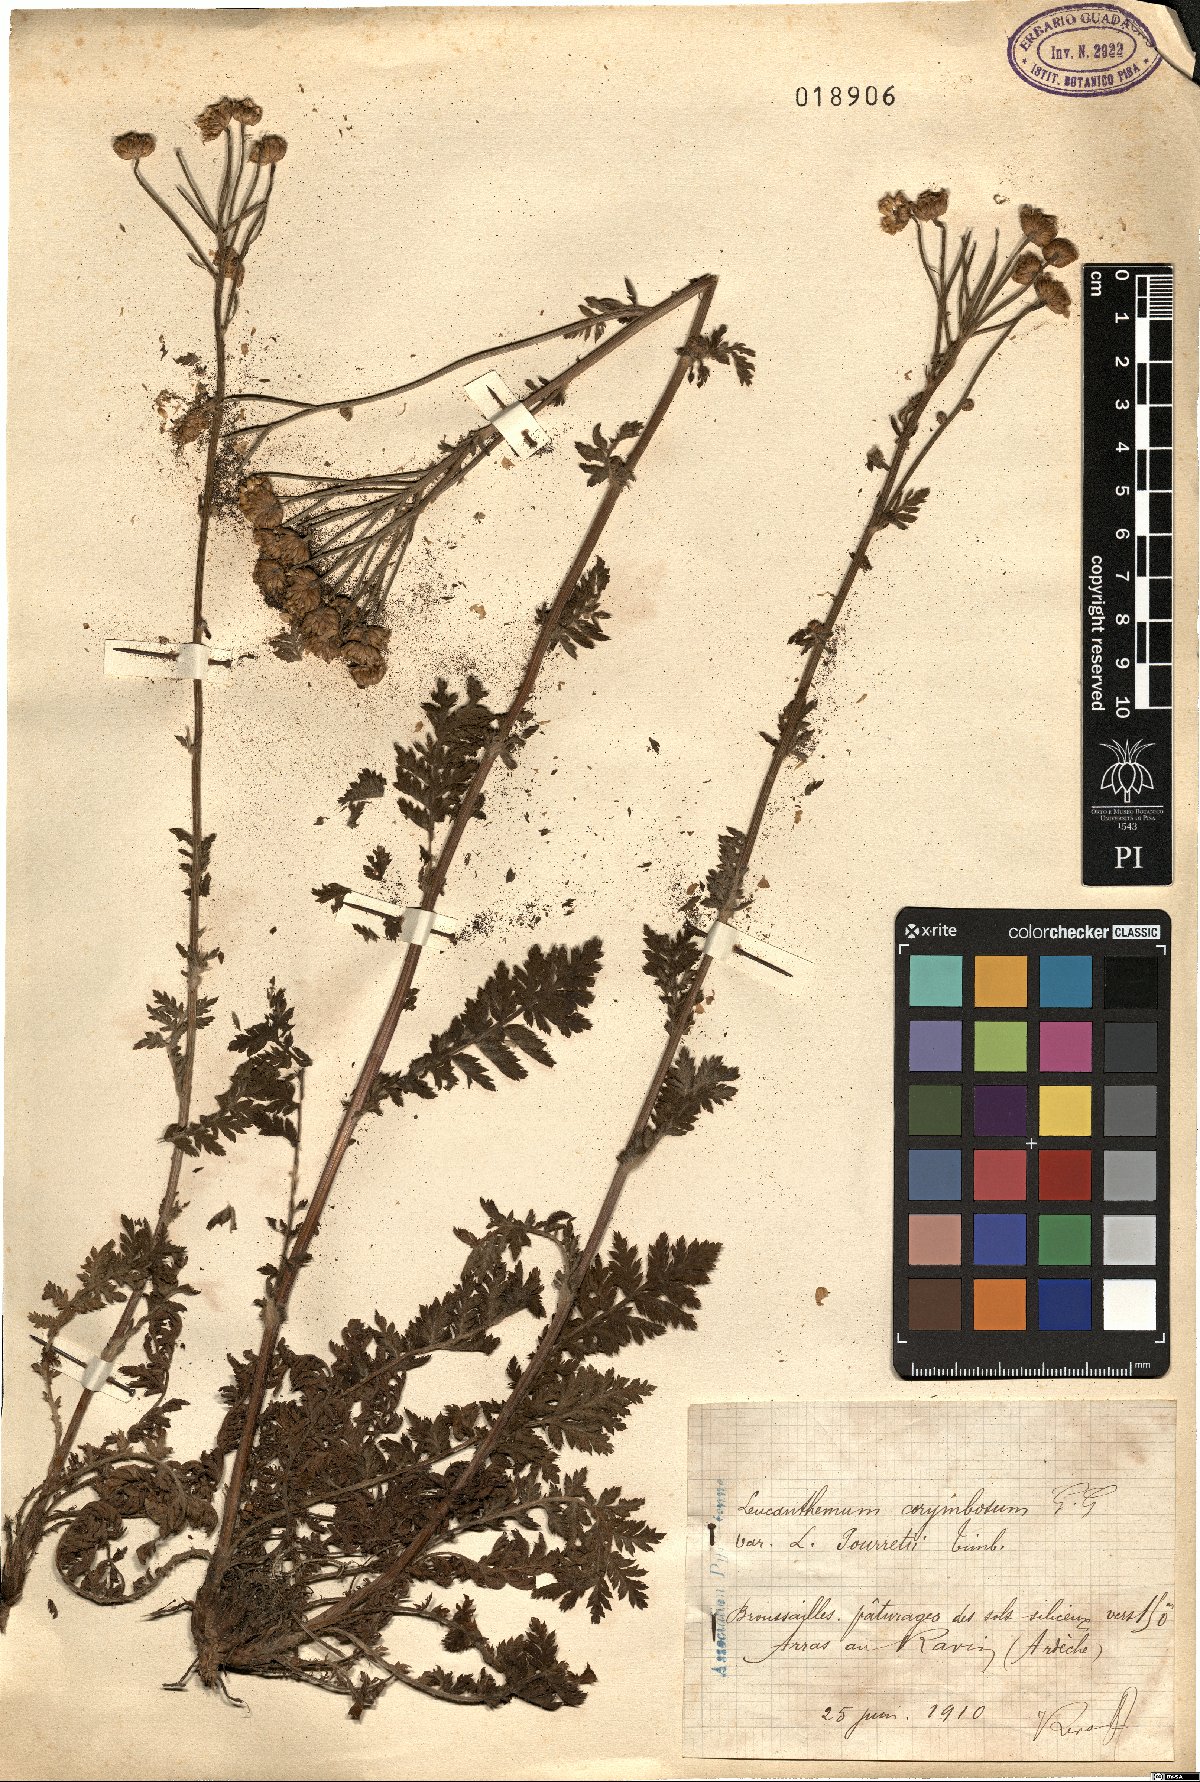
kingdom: Plantae
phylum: Tracheophyta
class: Magnoliopsida
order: Asterales
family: Asteraceae
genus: Tanacetum
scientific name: Tanacetum corymbosum
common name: Scentless feverfew
